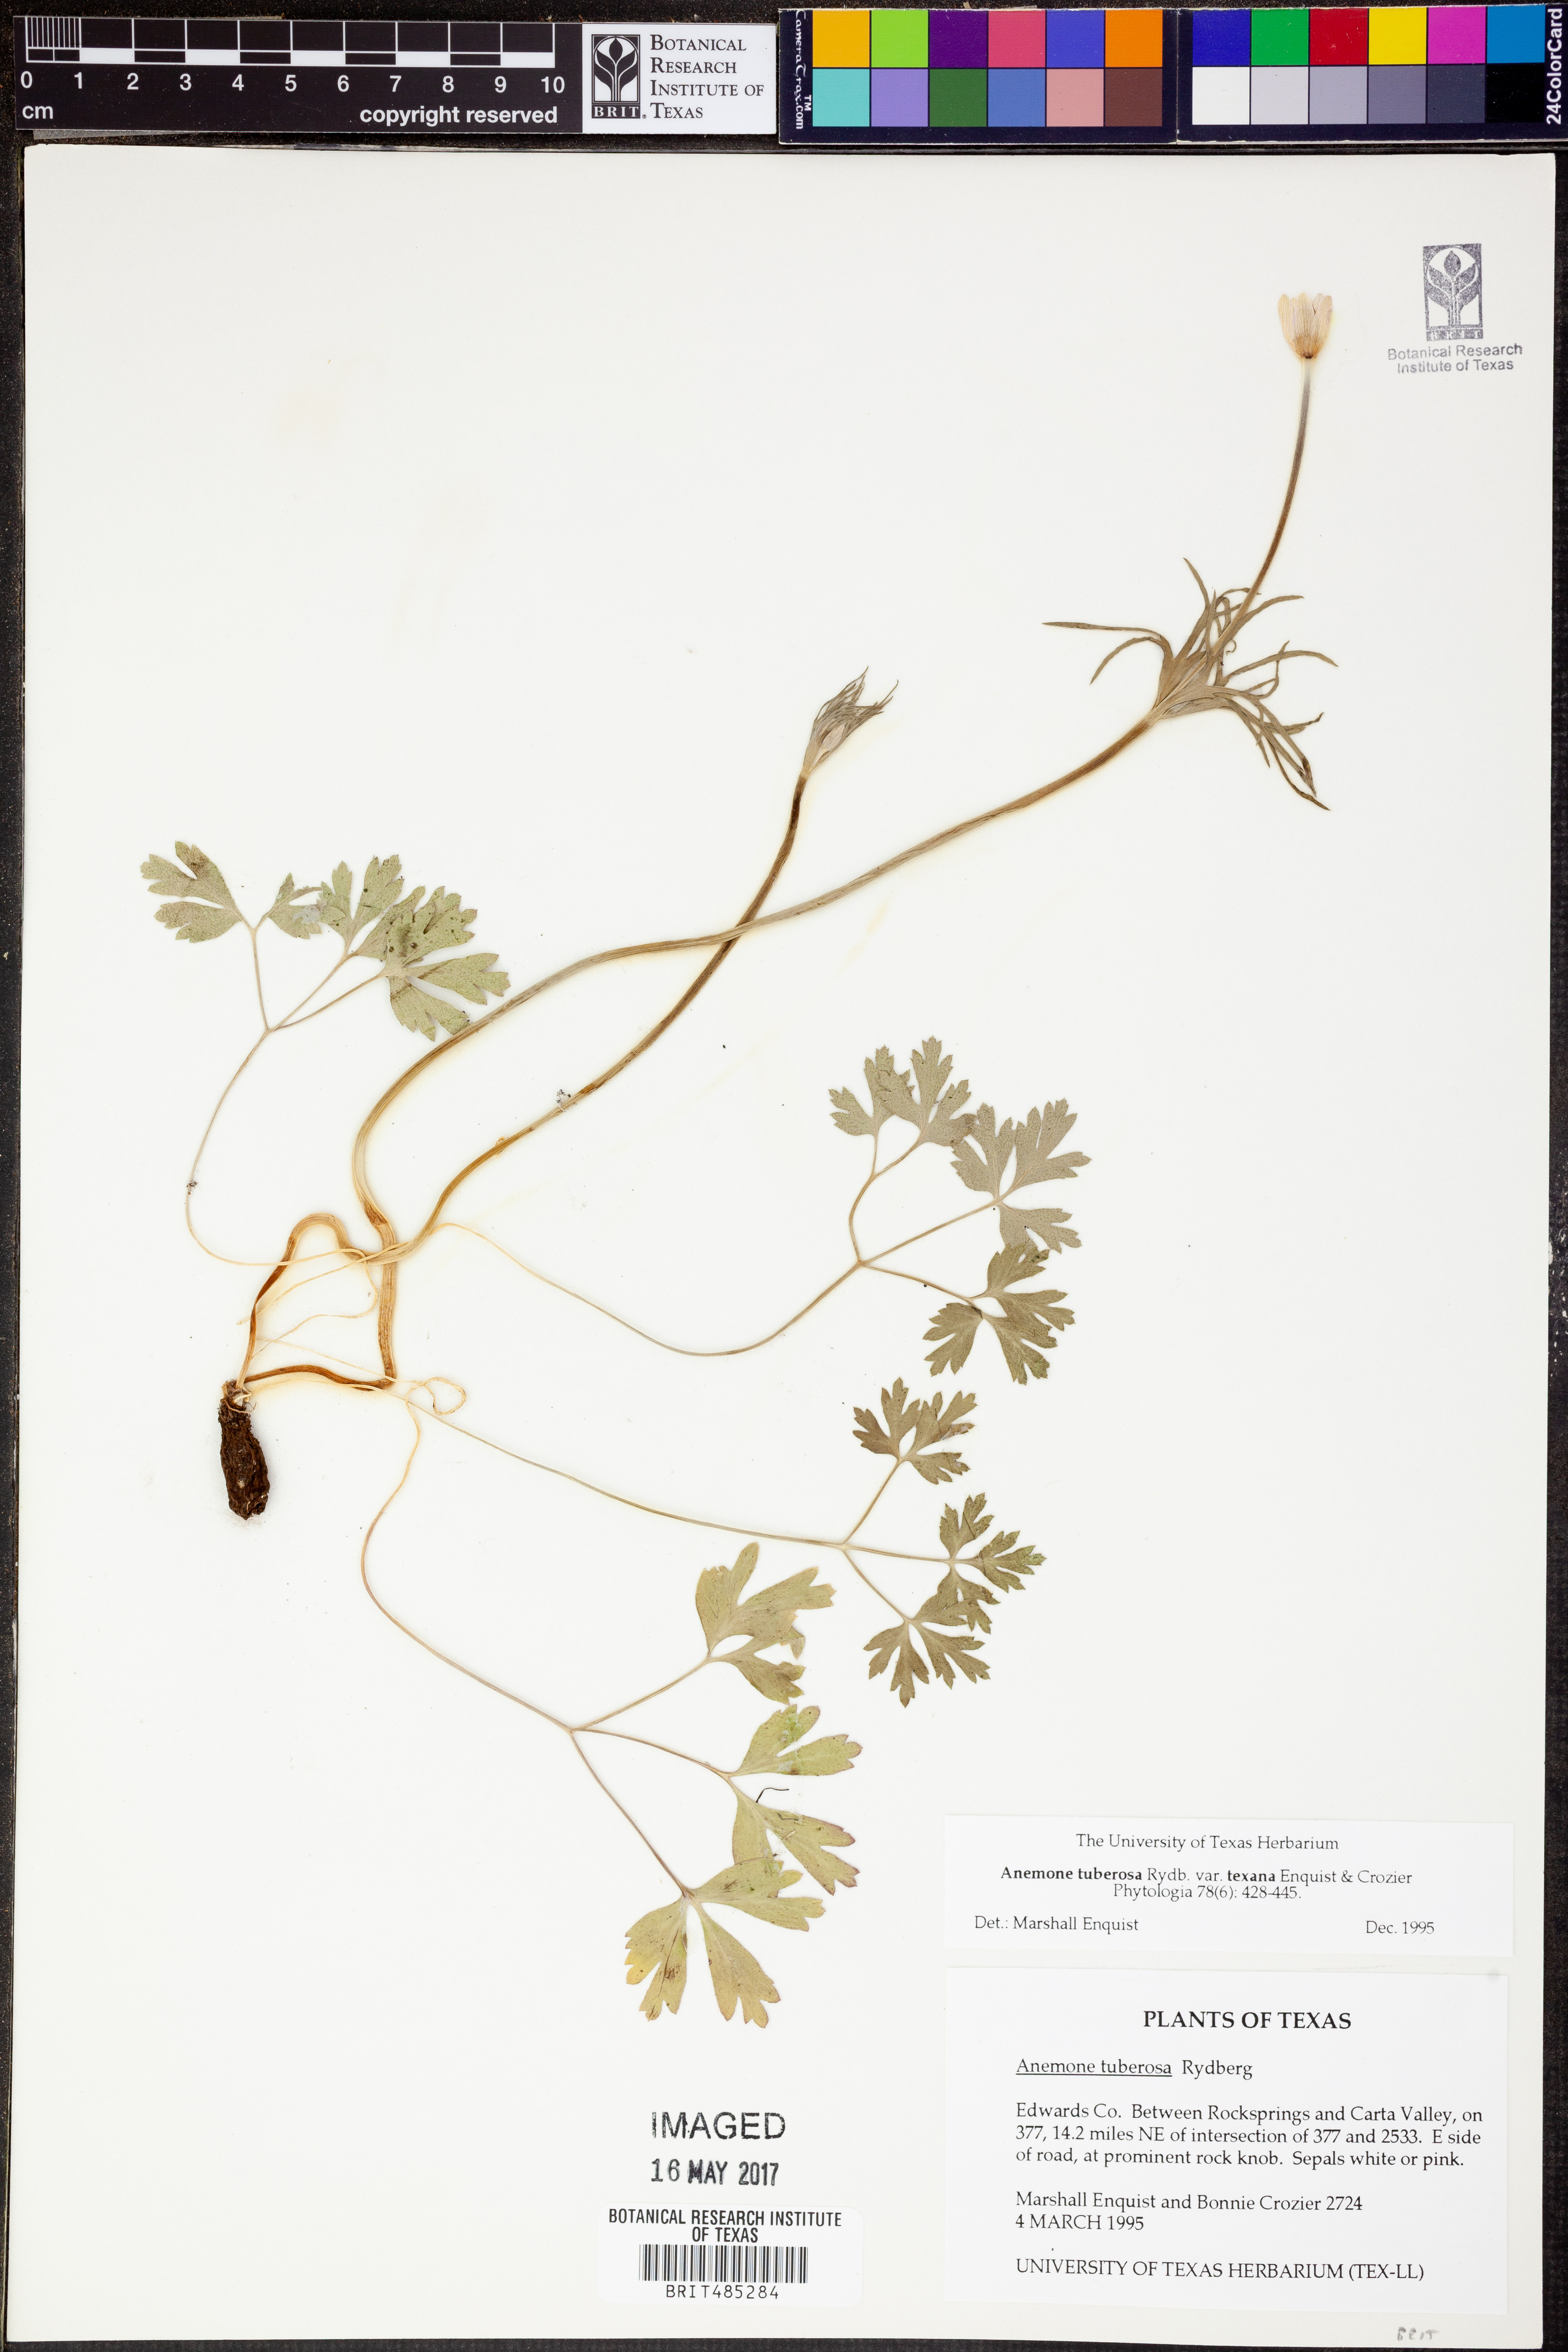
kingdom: Plantae
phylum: Tracheophyta
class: Magnoliopsida
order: Ranunculales
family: Ranunculaceae
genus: Anemone
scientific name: Anemone tuberosa
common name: Desert anemone
